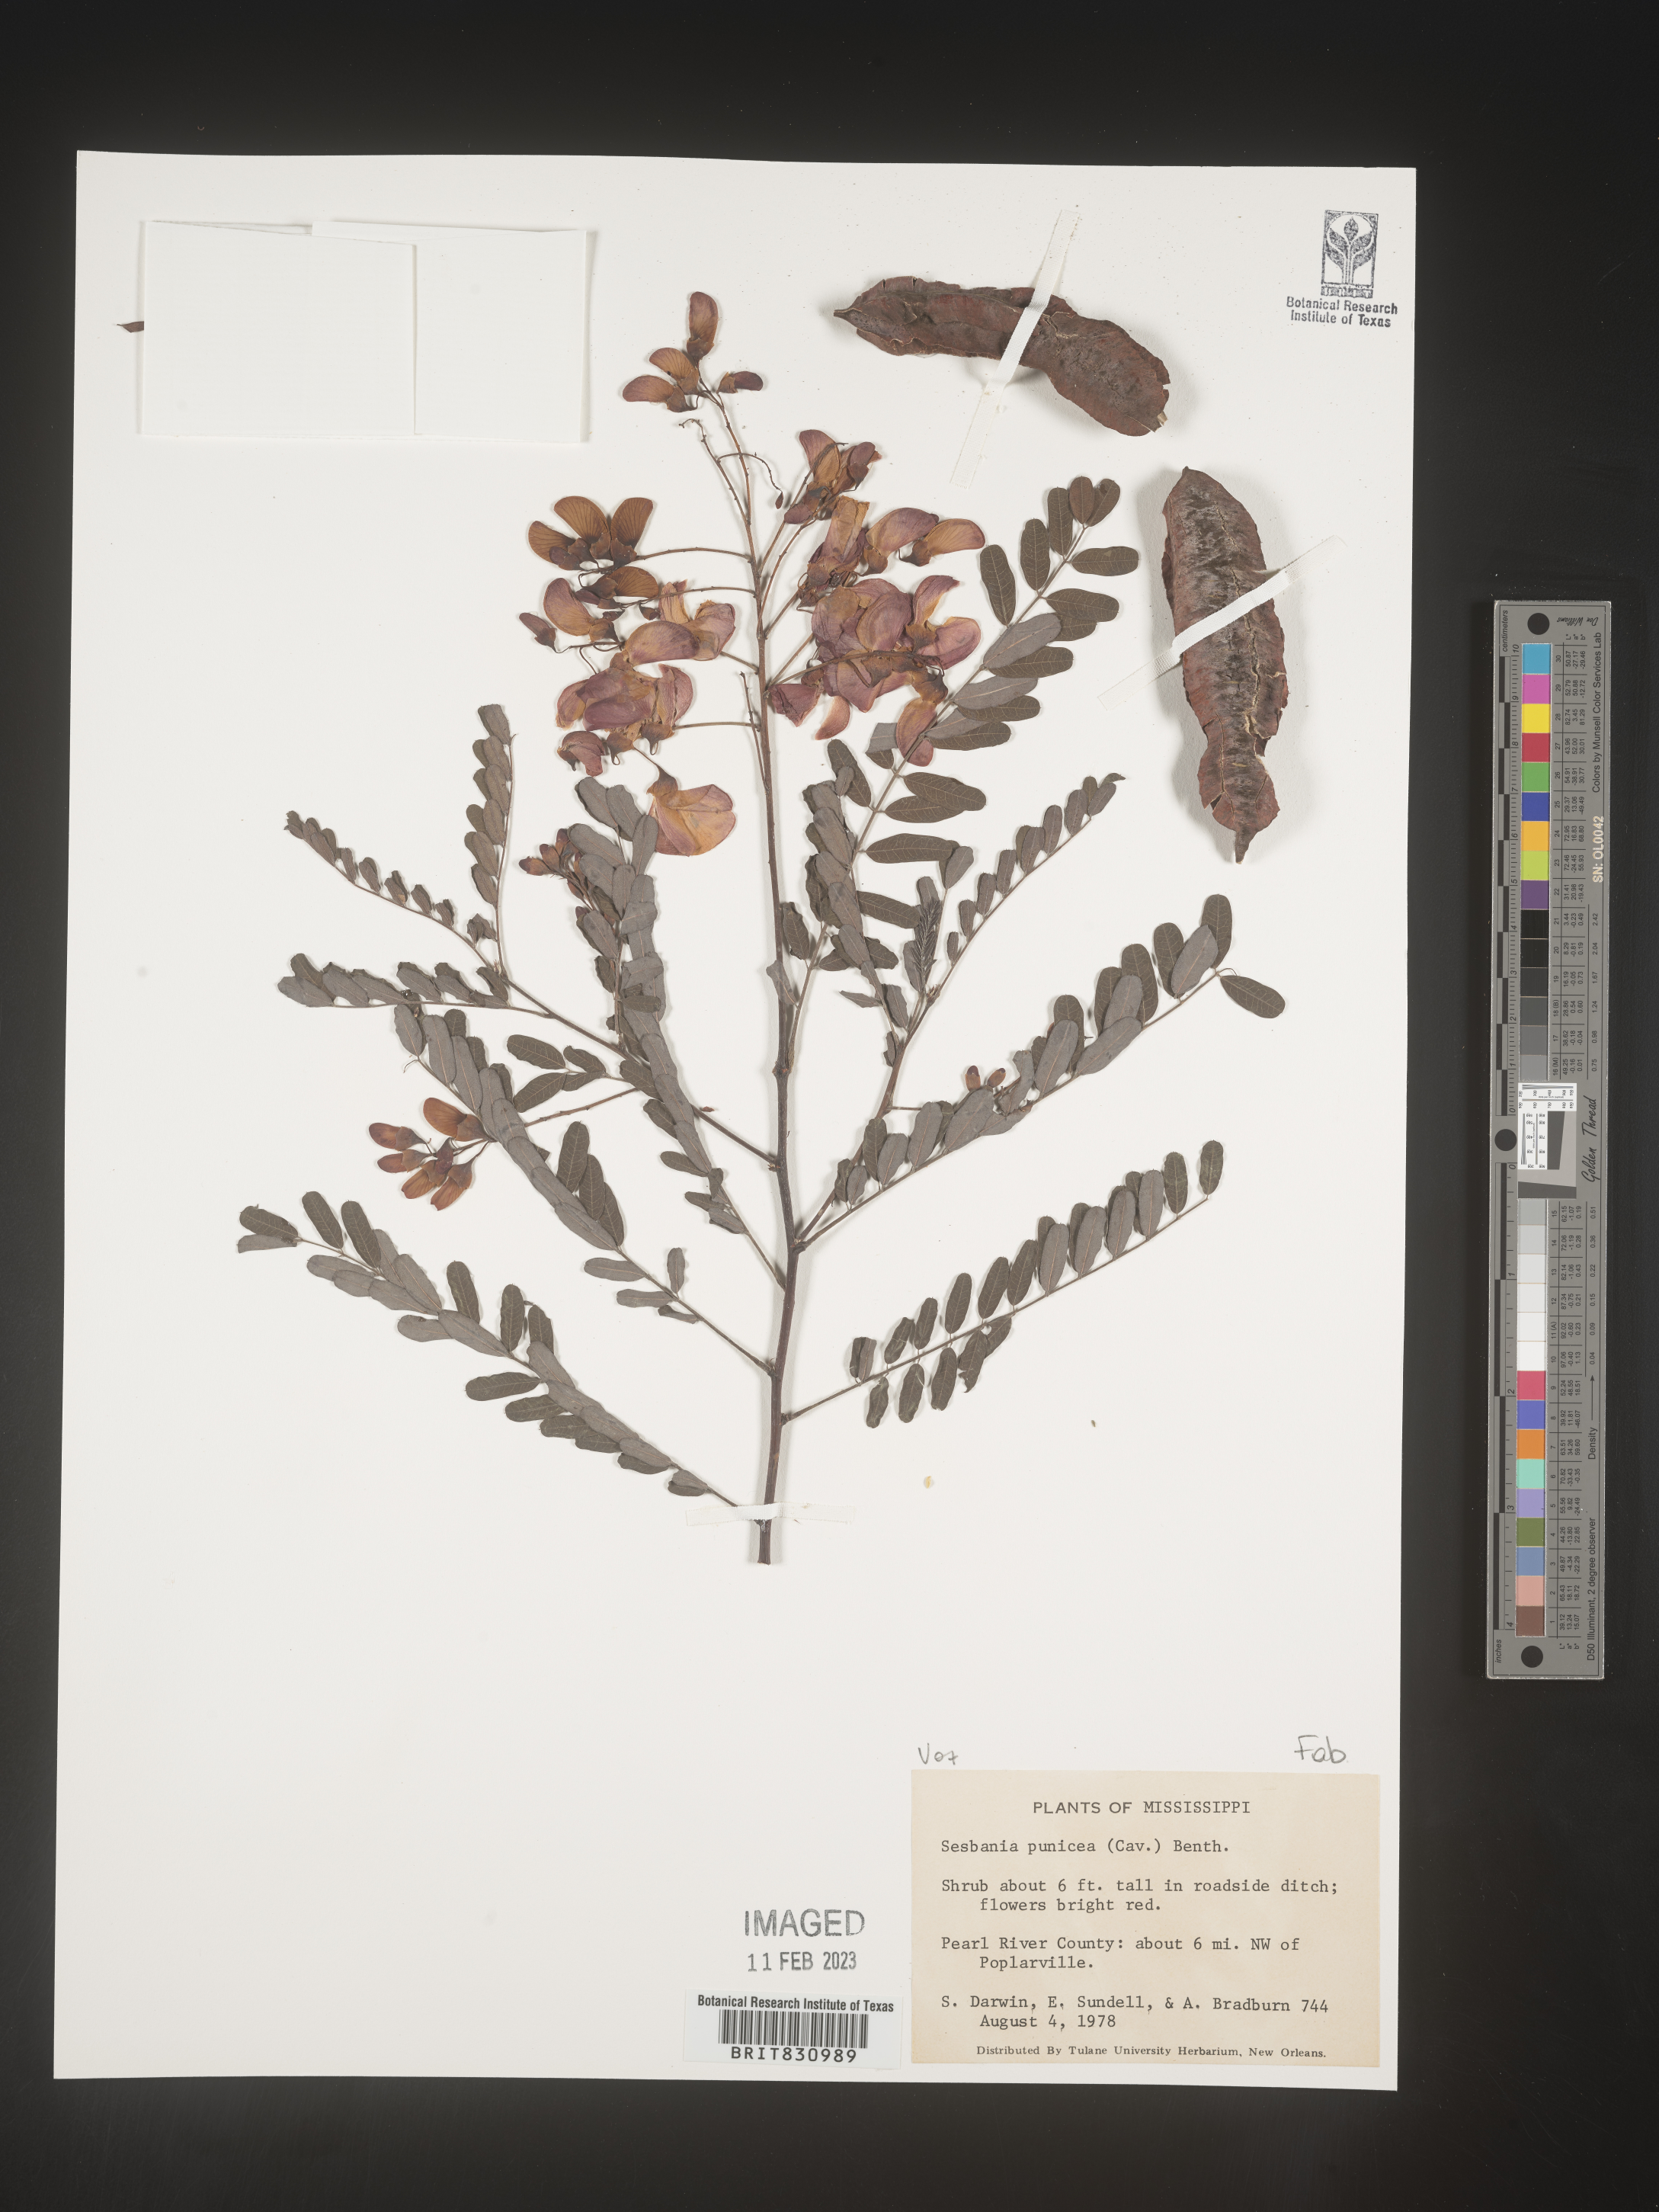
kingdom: Plantae
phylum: Tracheophyta
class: Magnoliopsida
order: Fabales
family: Fabaceae
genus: Sesbania
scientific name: Sesbania punicea
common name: Rattlebox
